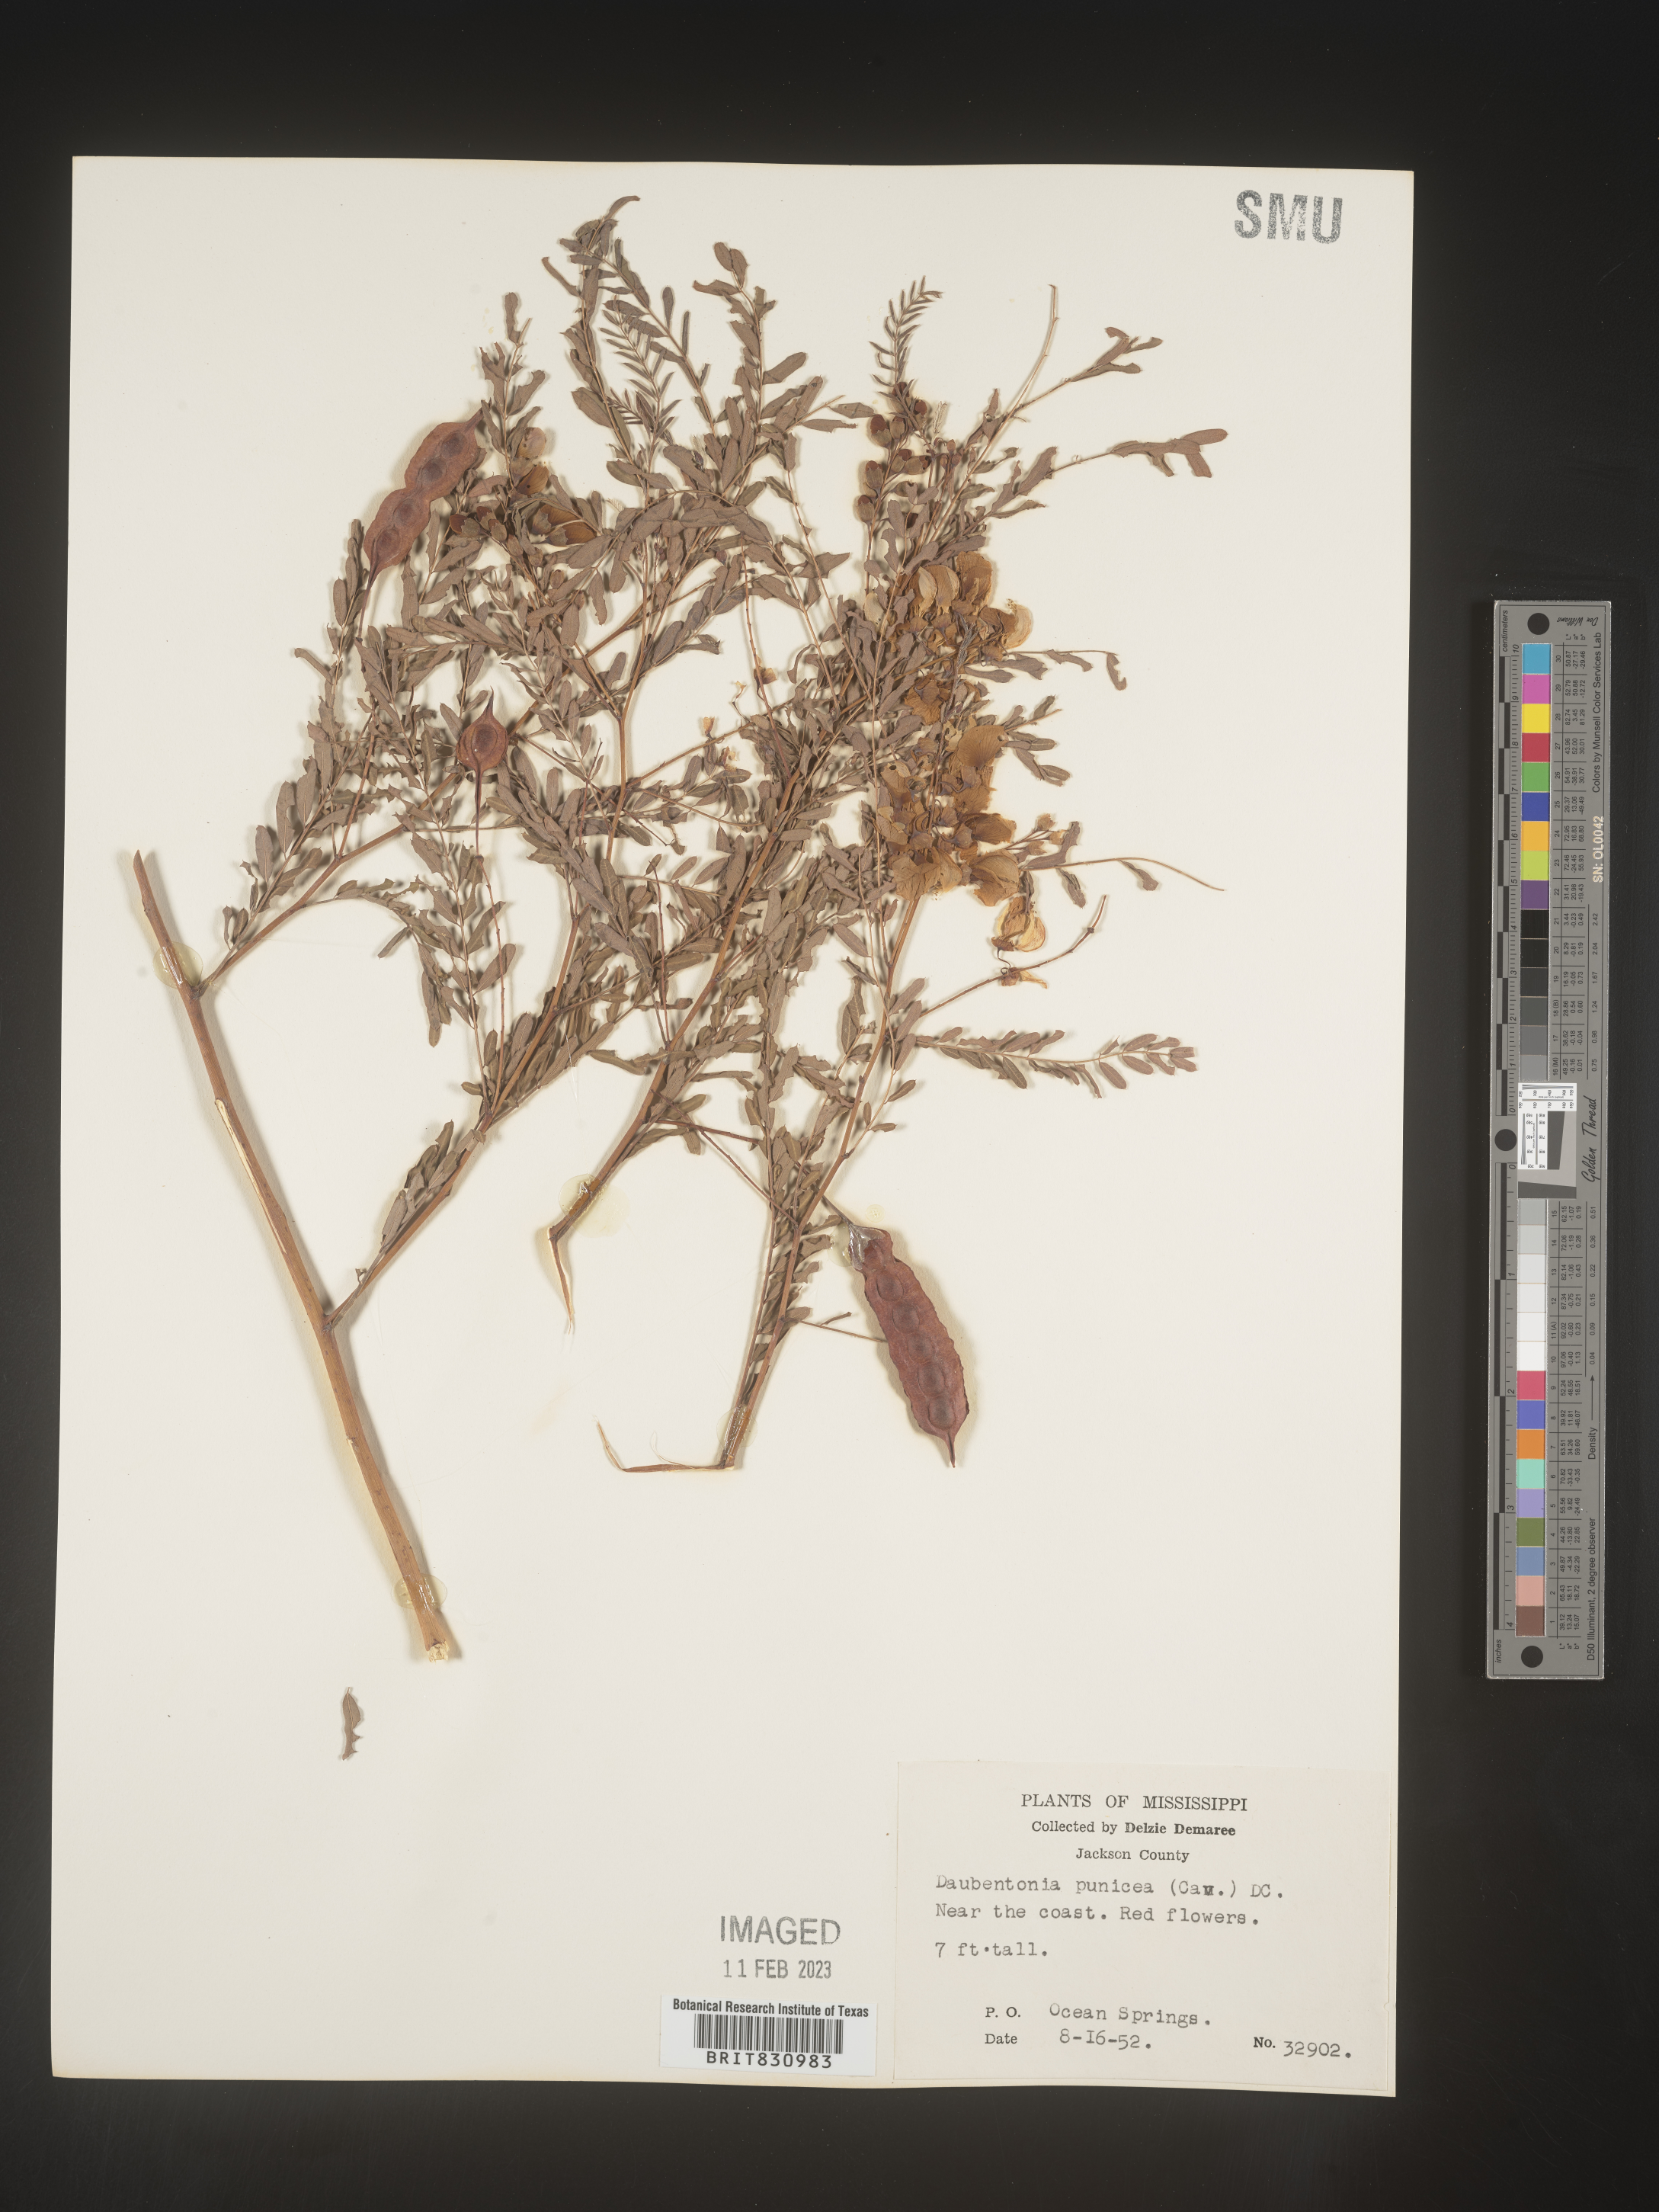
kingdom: Plantae
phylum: Tracheophyta
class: Magnoliopsida
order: Fabales
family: Fabaceae
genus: Sesbania
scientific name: Sesbania punicea
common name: Rattlebox
